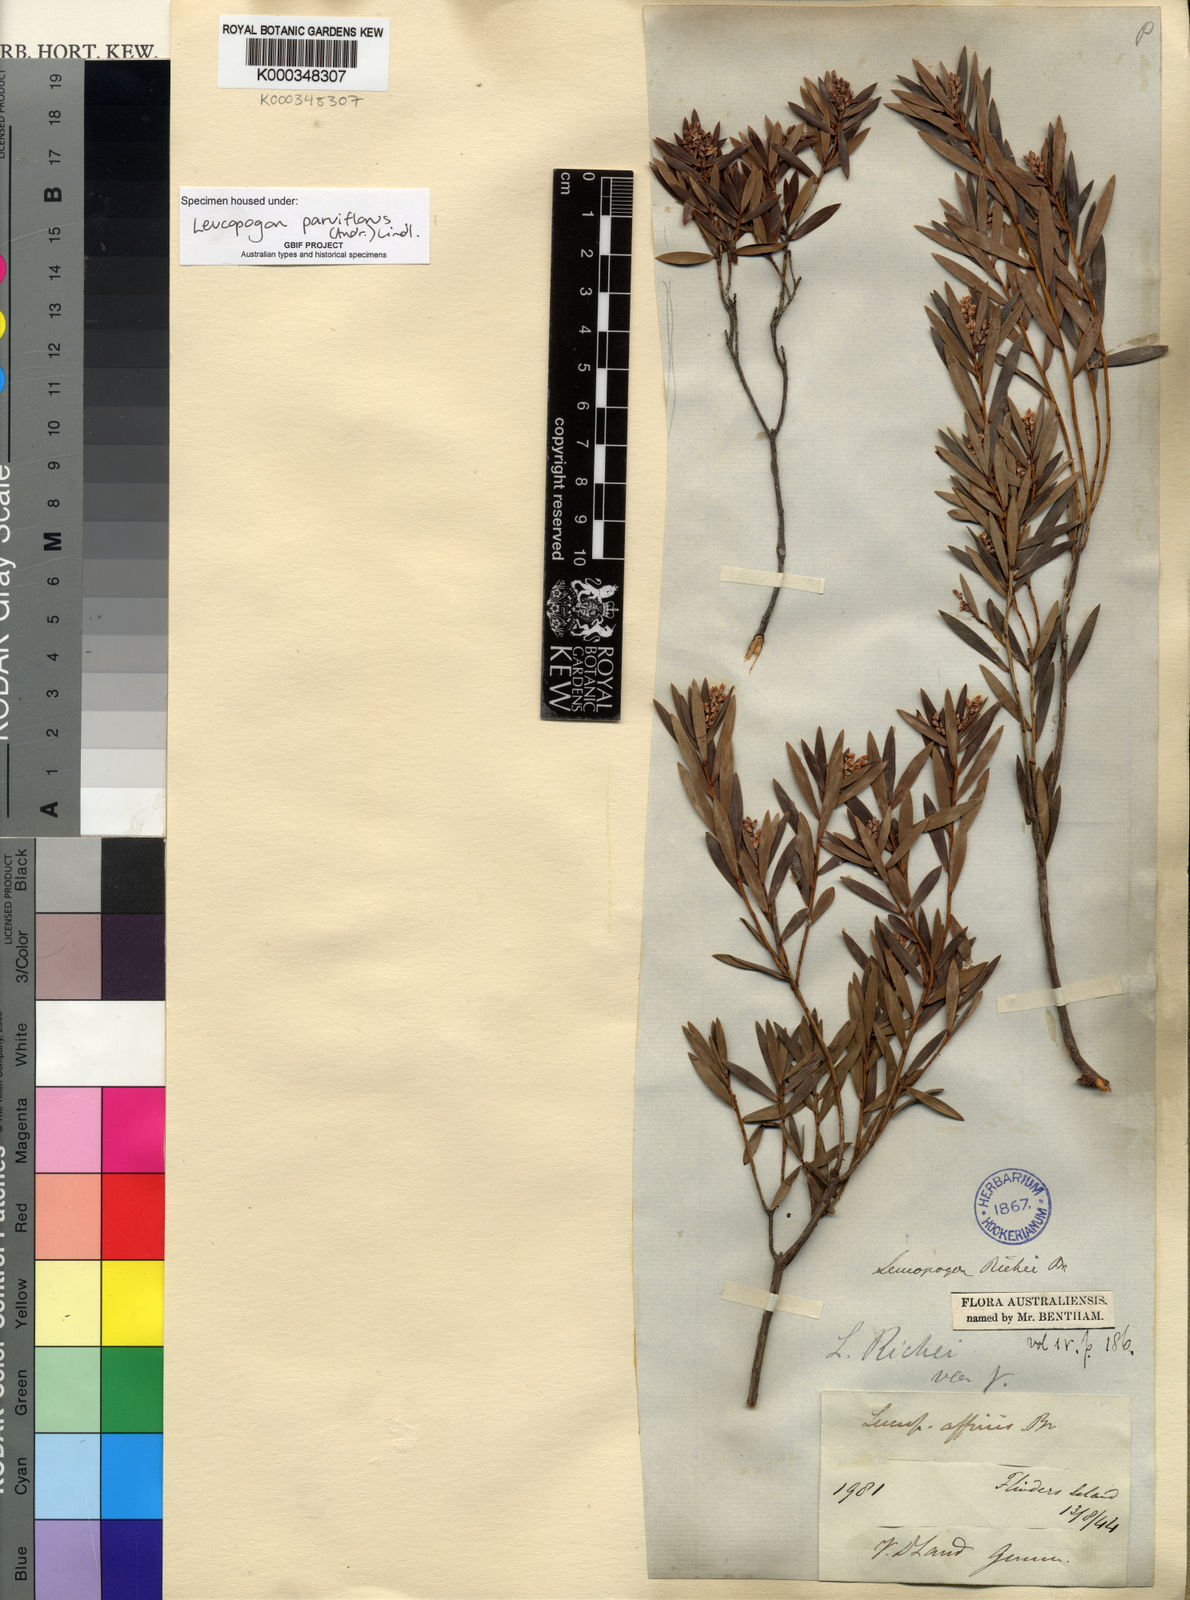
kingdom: Plantae
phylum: Tracheophyta
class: Magnoliopsida
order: Ericales
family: Ericaceae
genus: Leptecophylla
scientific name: Leptecophylla parvifolia
